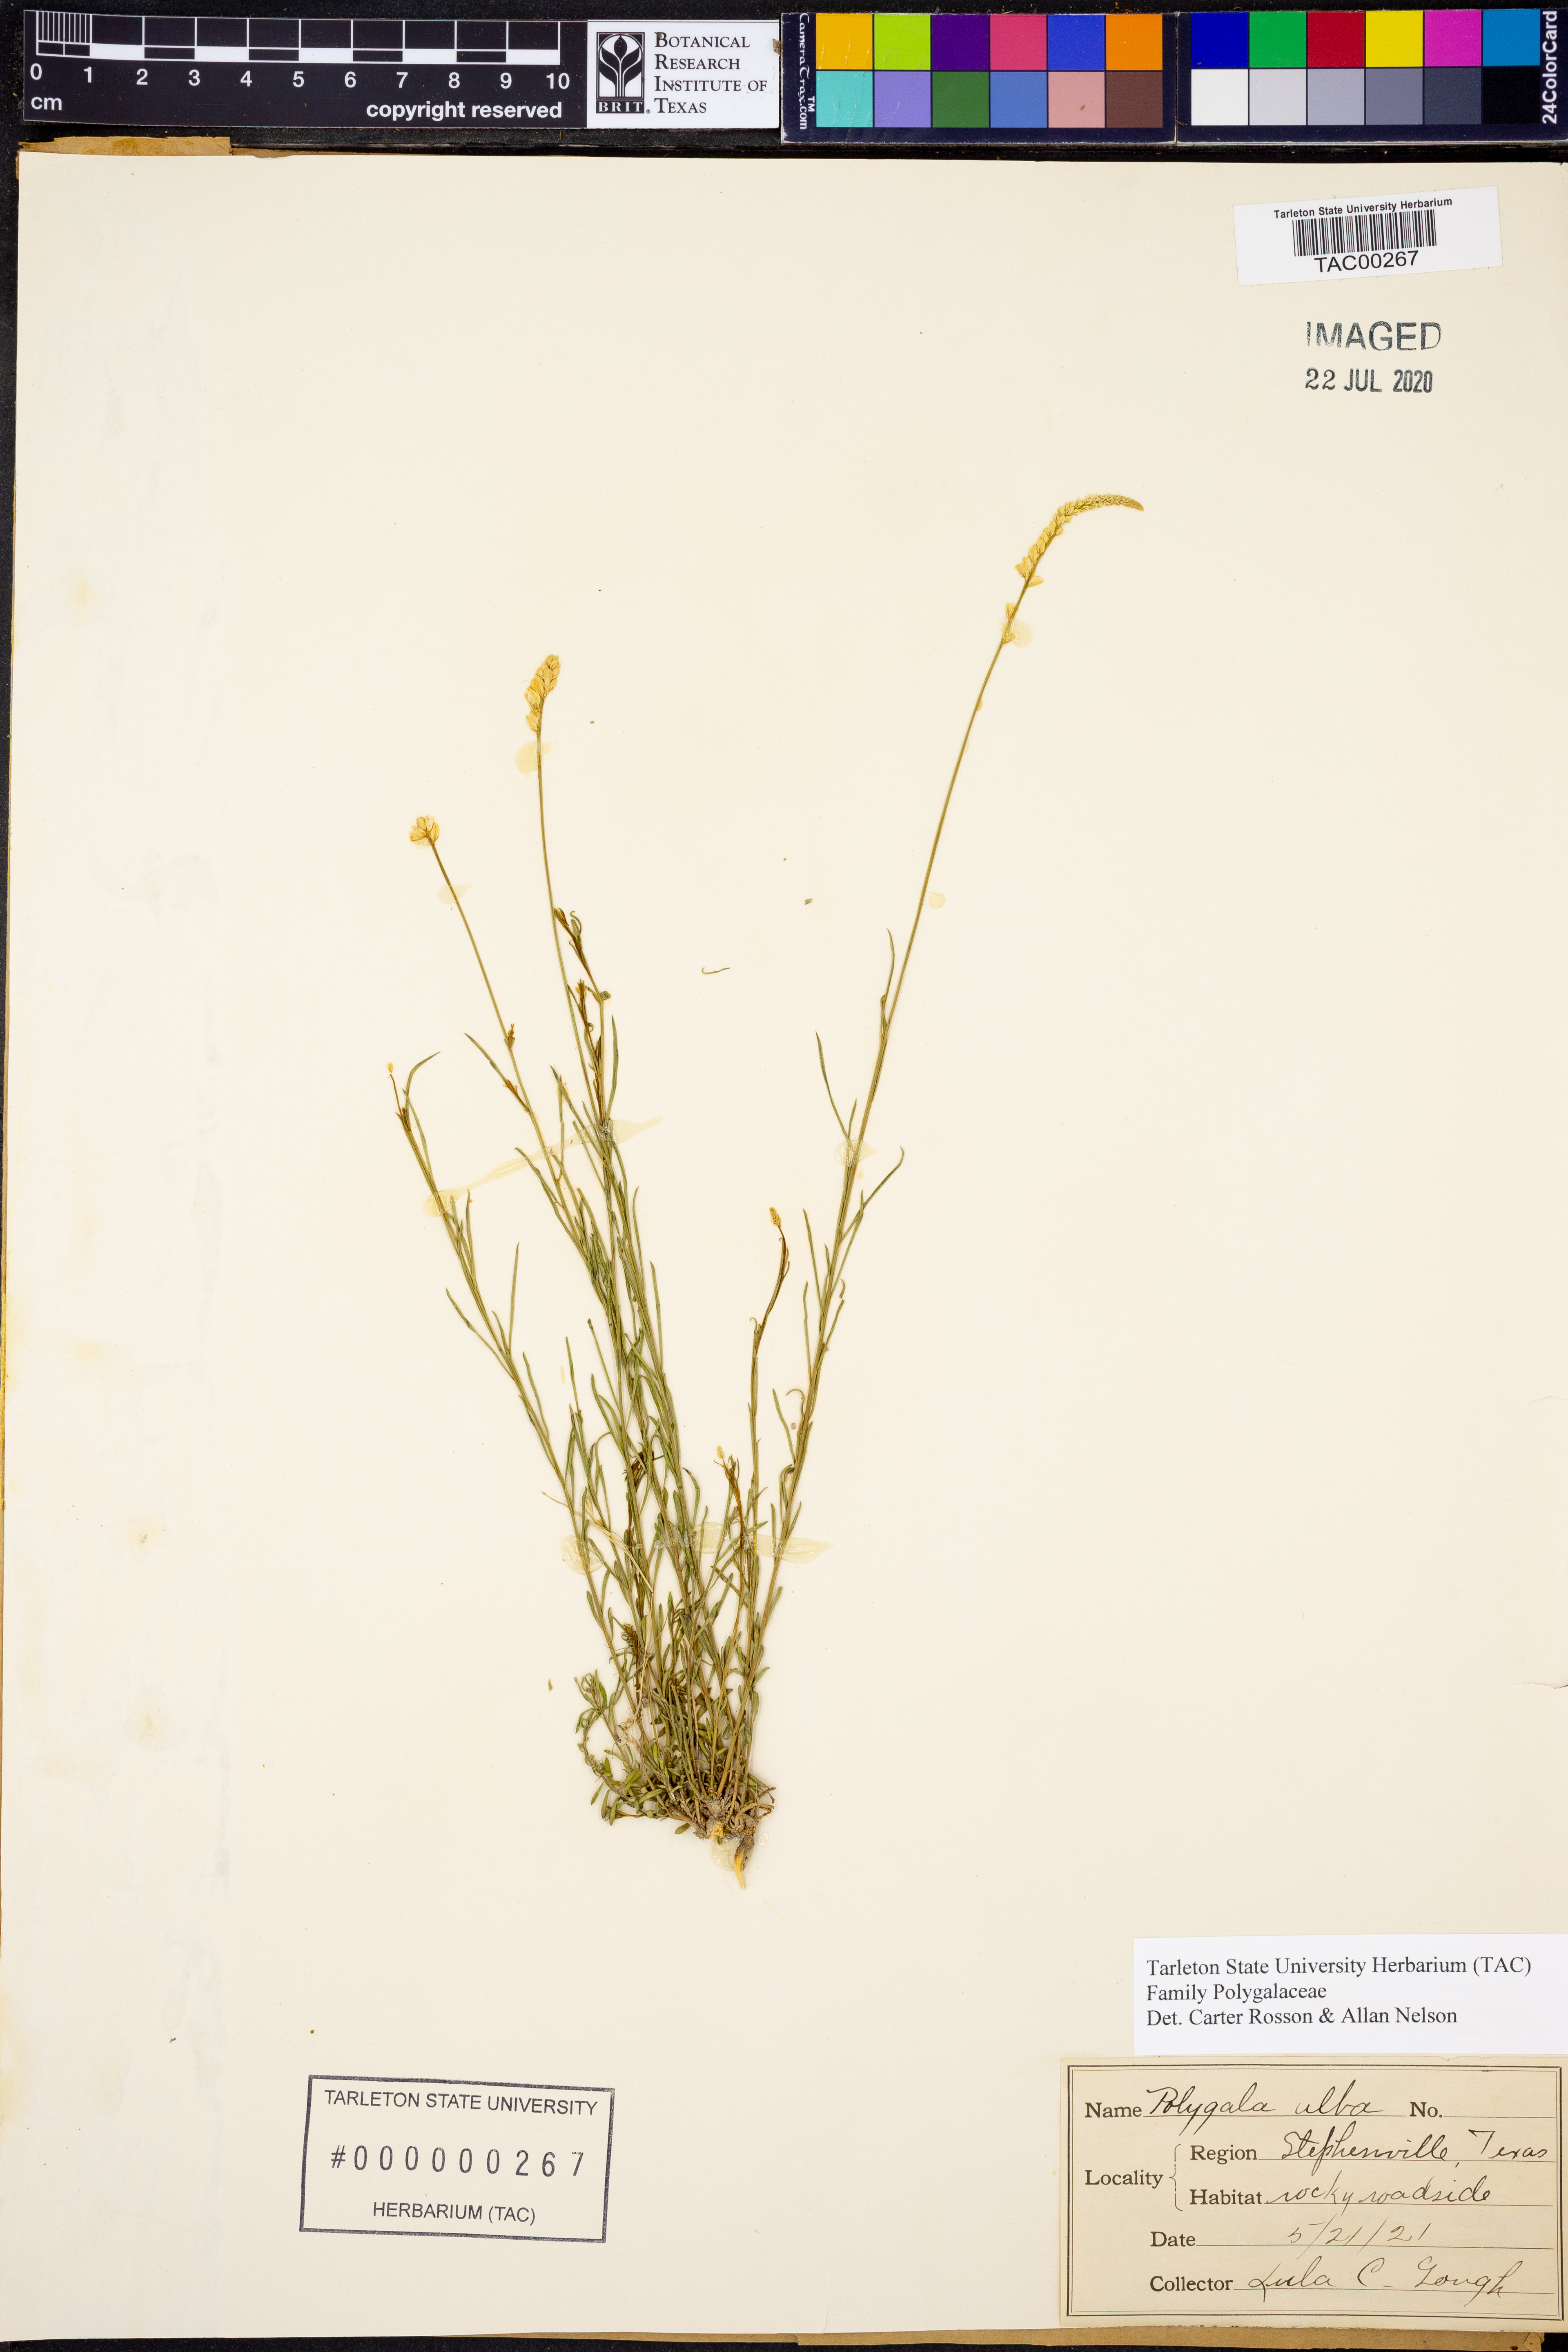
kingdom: Plantae
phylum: Tracheophyta
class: Magnoliopsida
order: Fabales
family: Polygalaceae
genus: Polygala
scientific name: Polygala alba
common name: White milkwort
